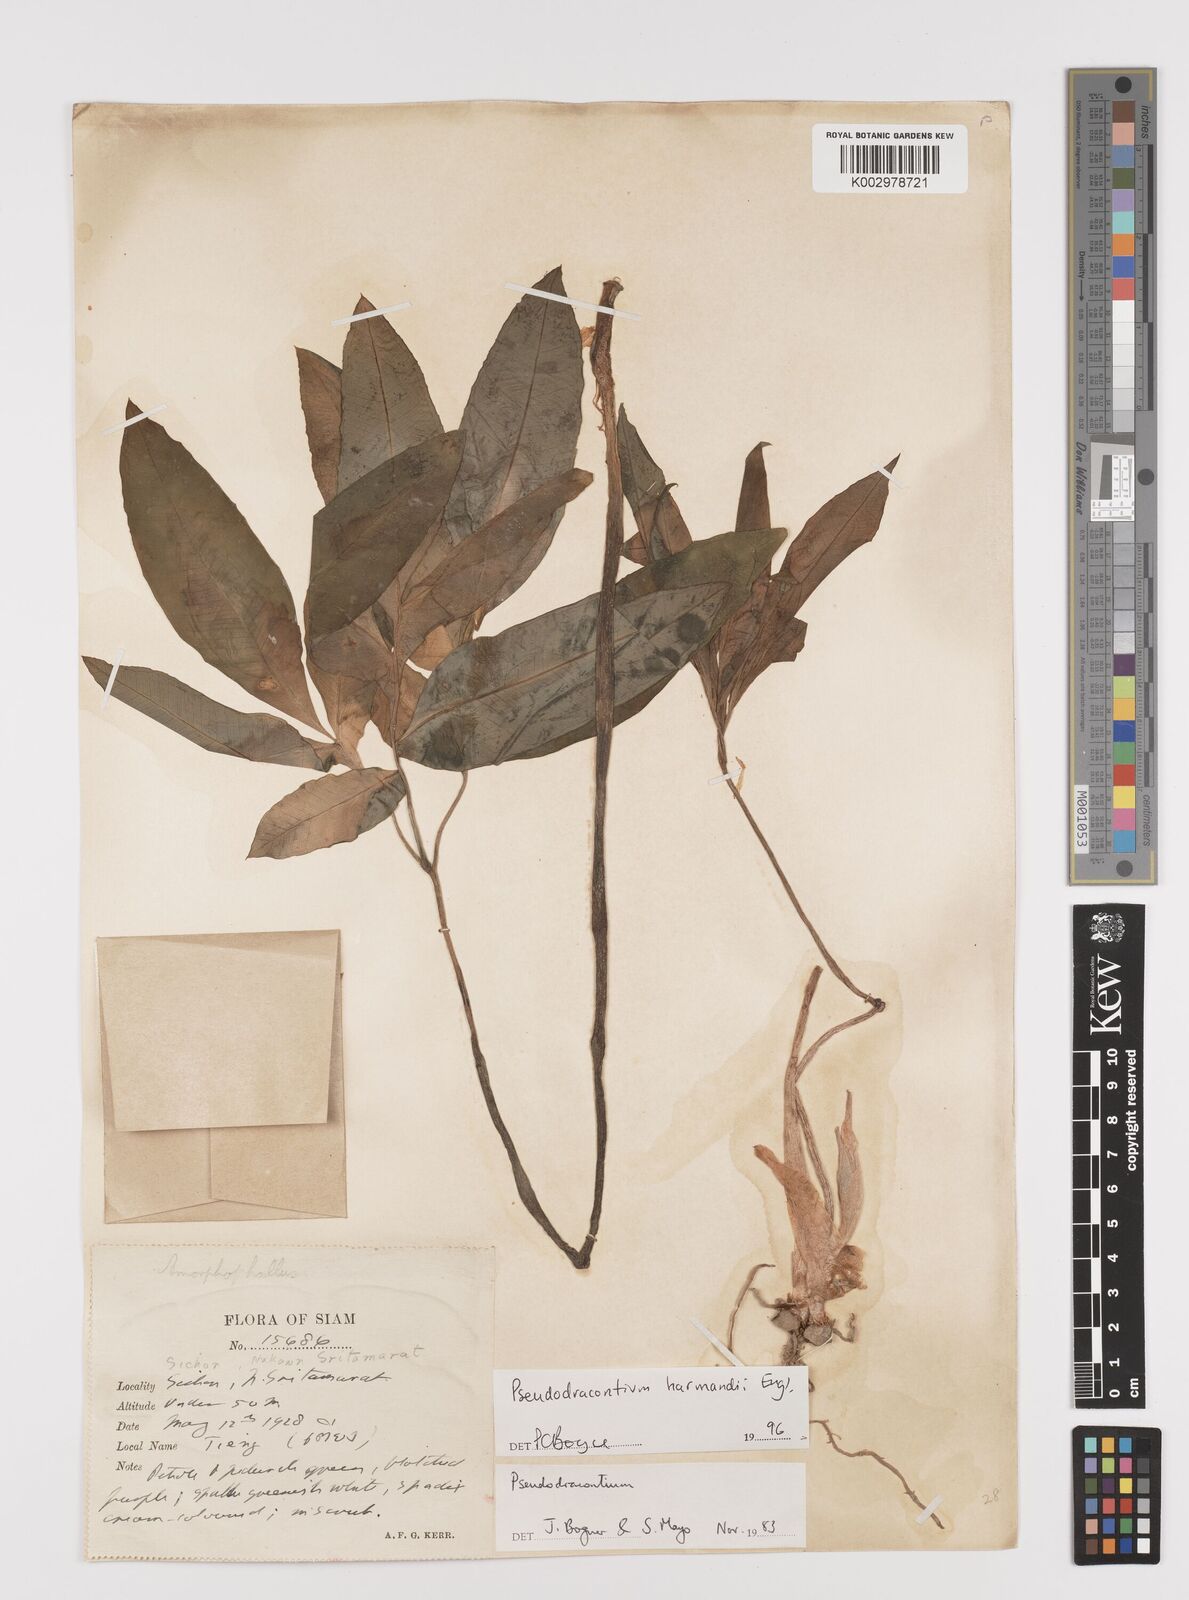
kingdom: Plantae
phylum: Tracheophyta
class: Liliopsida
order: Alismatales
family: Araceae
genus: Amorphophallus
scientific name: Amorphophallus harmandii
